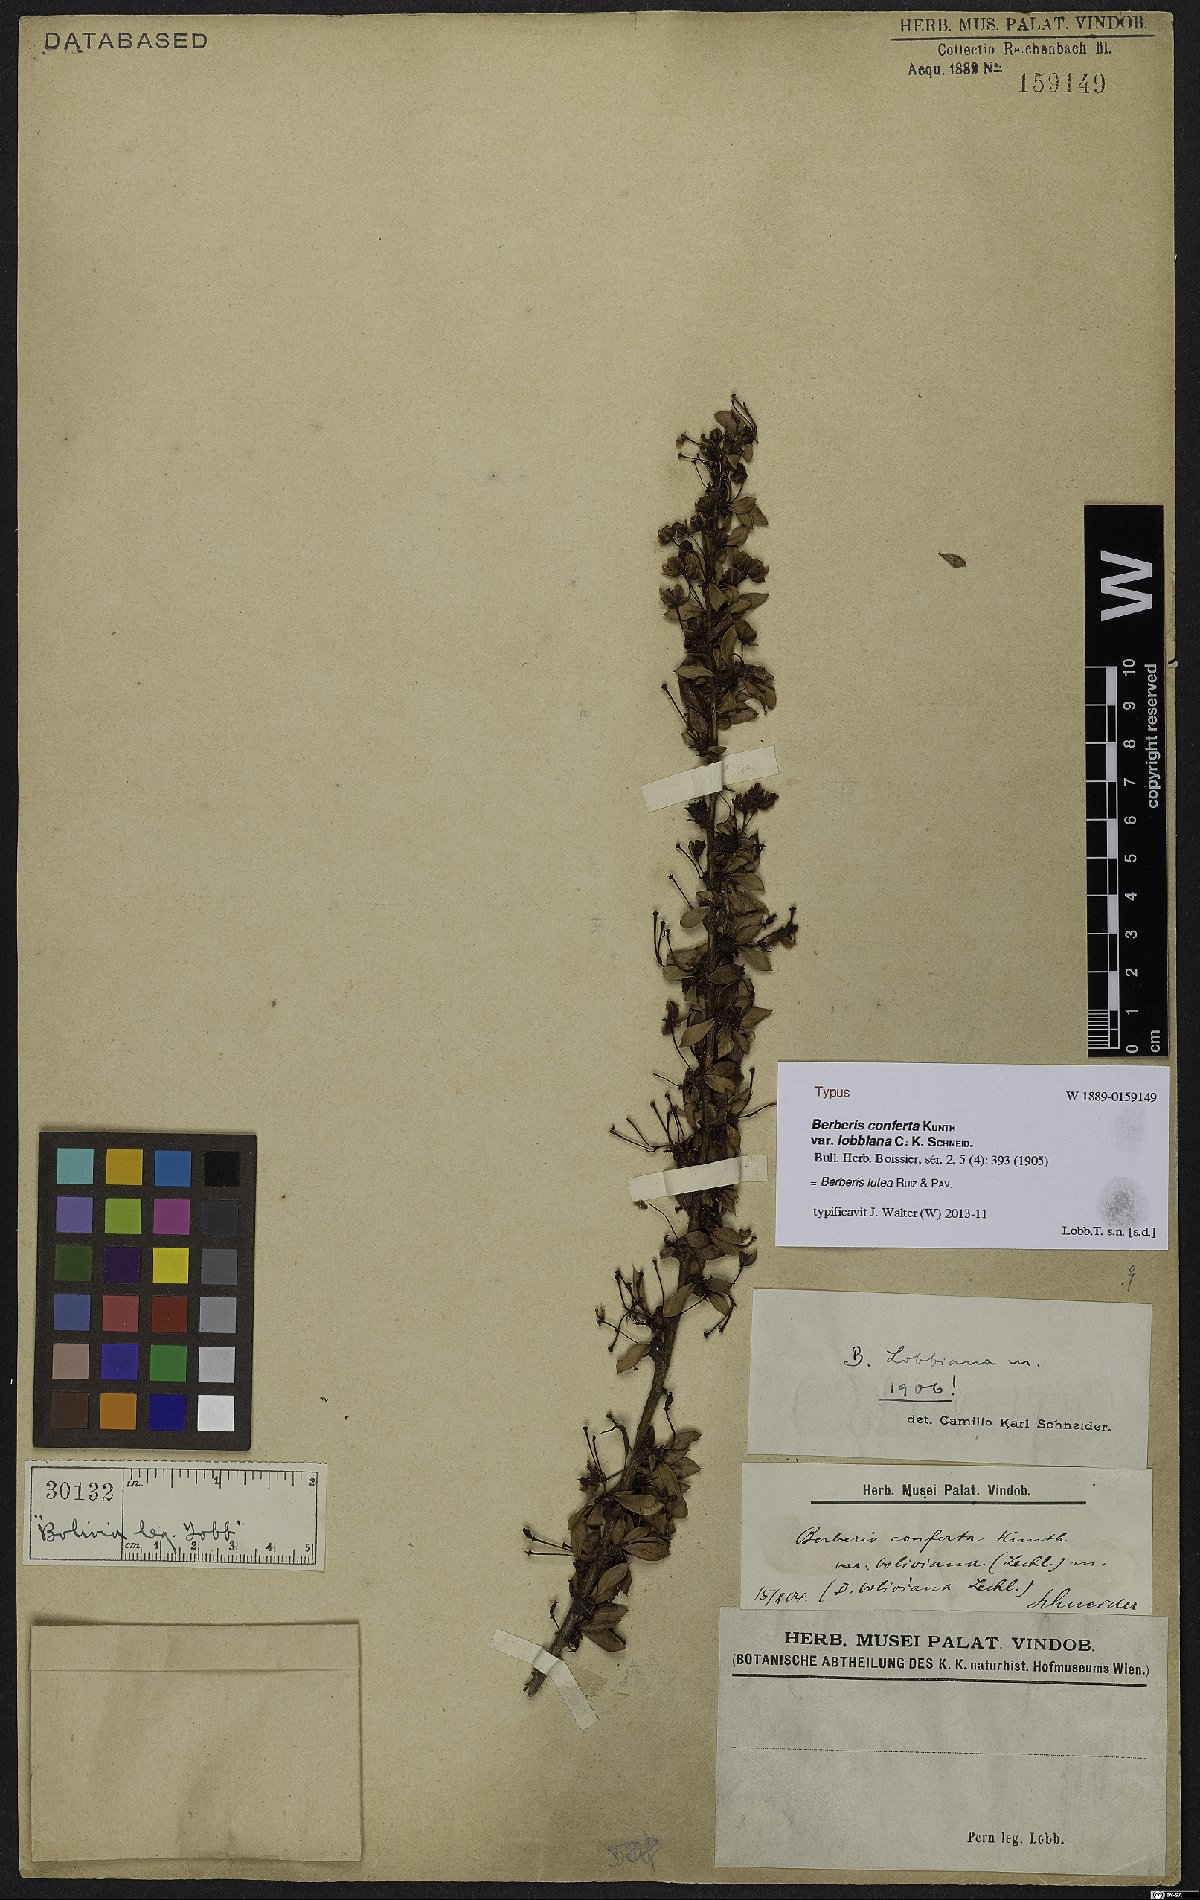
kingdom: Plantae
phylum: Tracheophyta
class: Magnoliopsida
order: Ranunculales
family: Berberidaceae
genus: Berberis
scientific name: Berberis lutea
